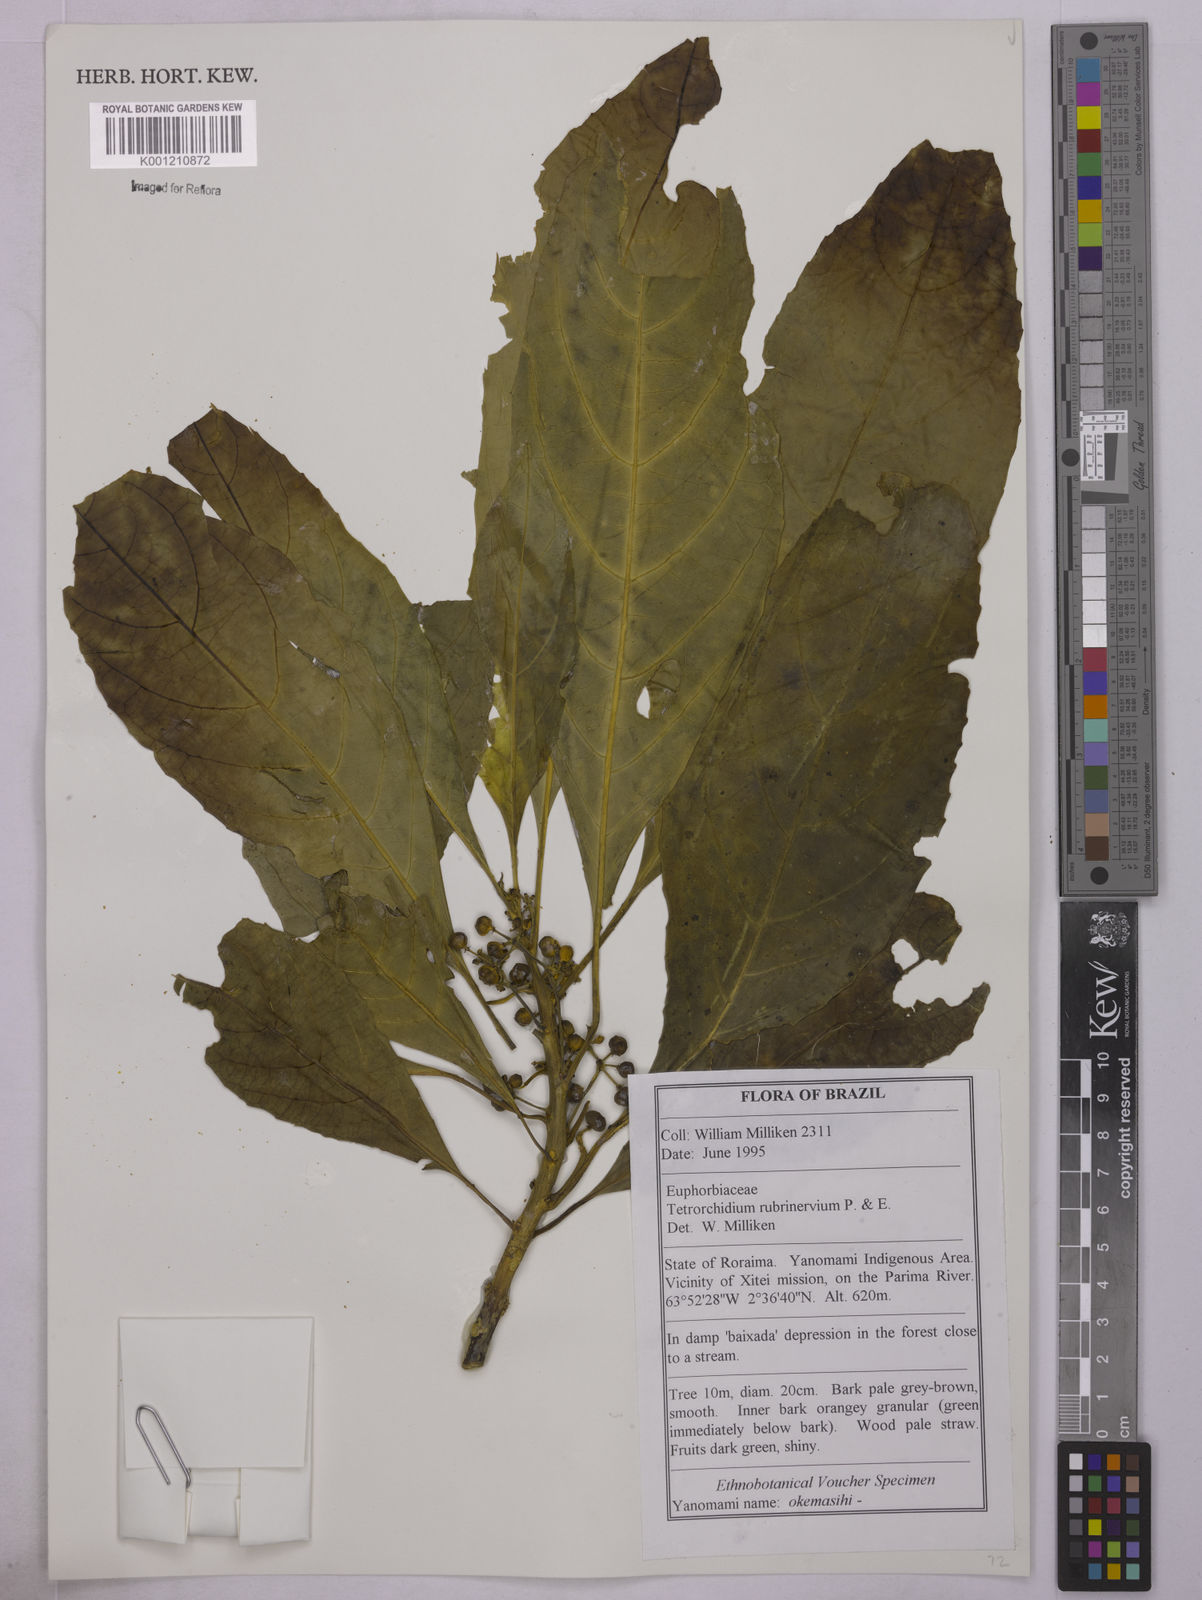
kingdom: Plantae
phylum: Tracheophyta
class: Magnoliopsida
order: Malpighiales
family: Euphorbiaceae
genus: Tetrorchidium
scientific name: Tetrorchidium rubrivenium
